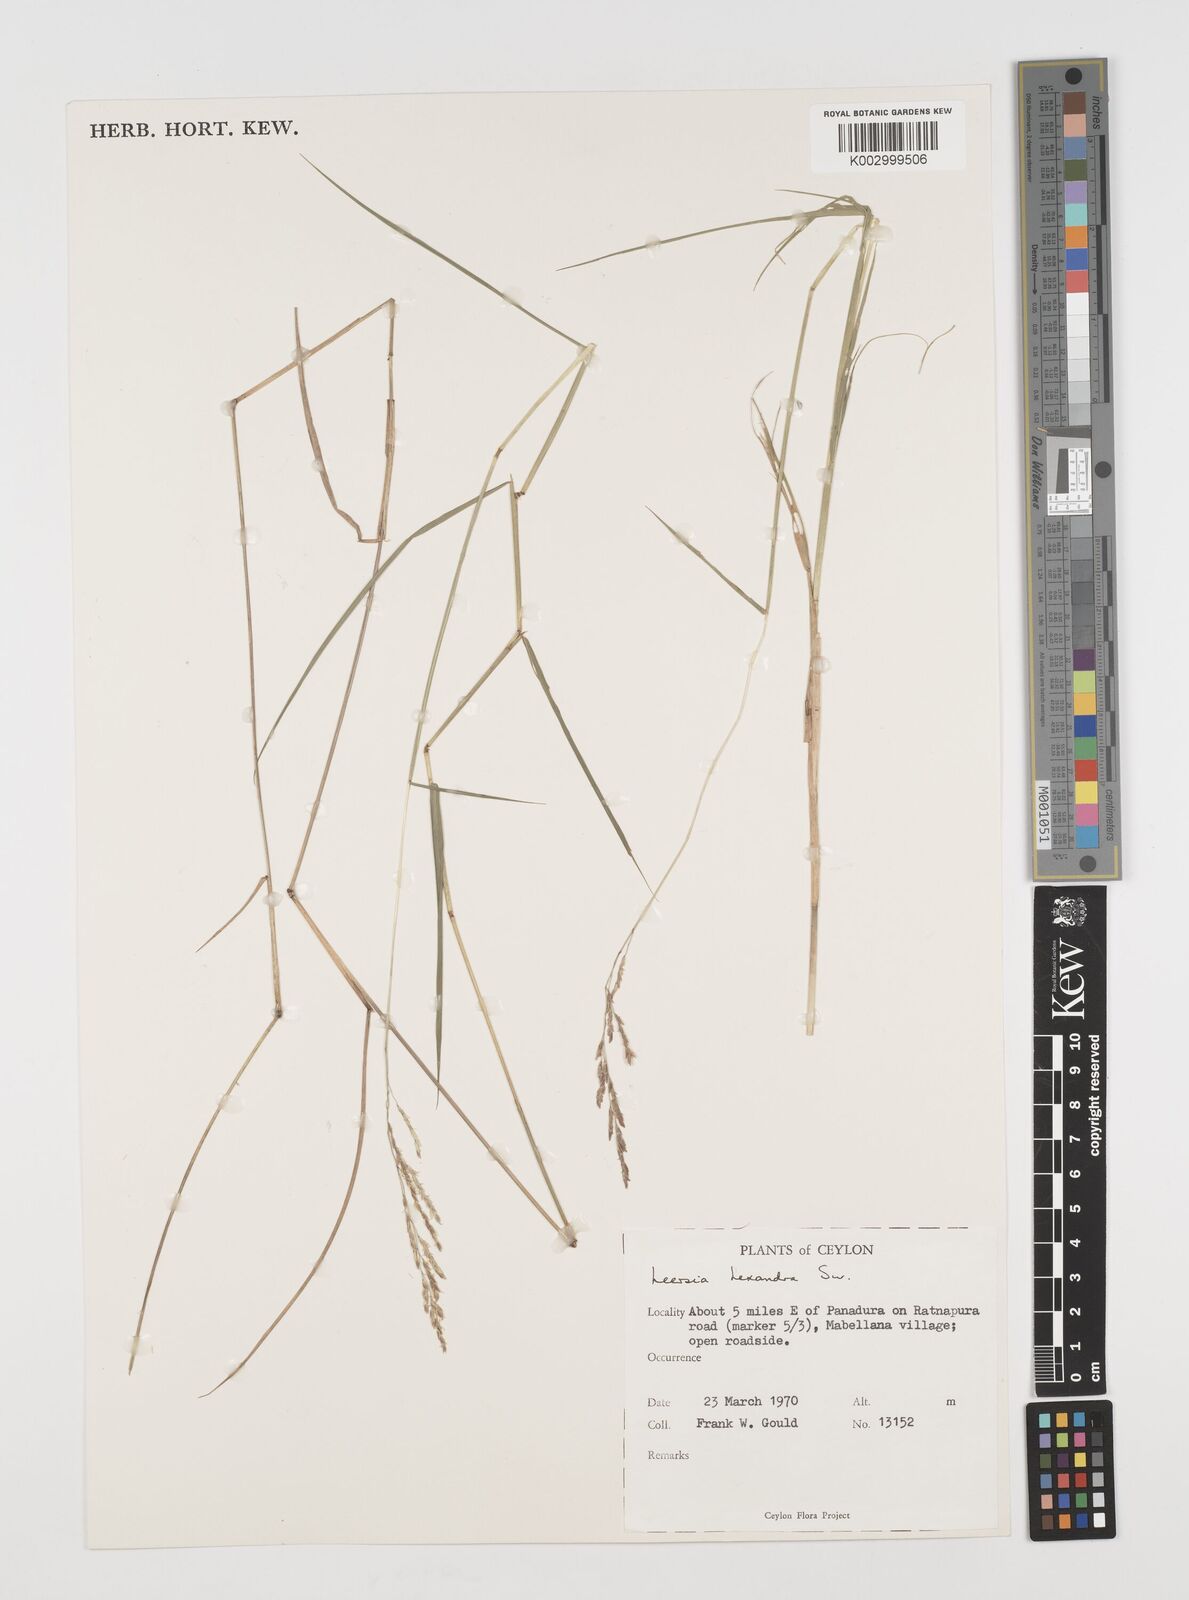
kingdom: Plantae
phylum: Tracheophyta
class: Liliopsida
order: Poales
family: Poaceae
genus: Leersia
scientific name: Leersia hexandra
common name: Southern cut grass
